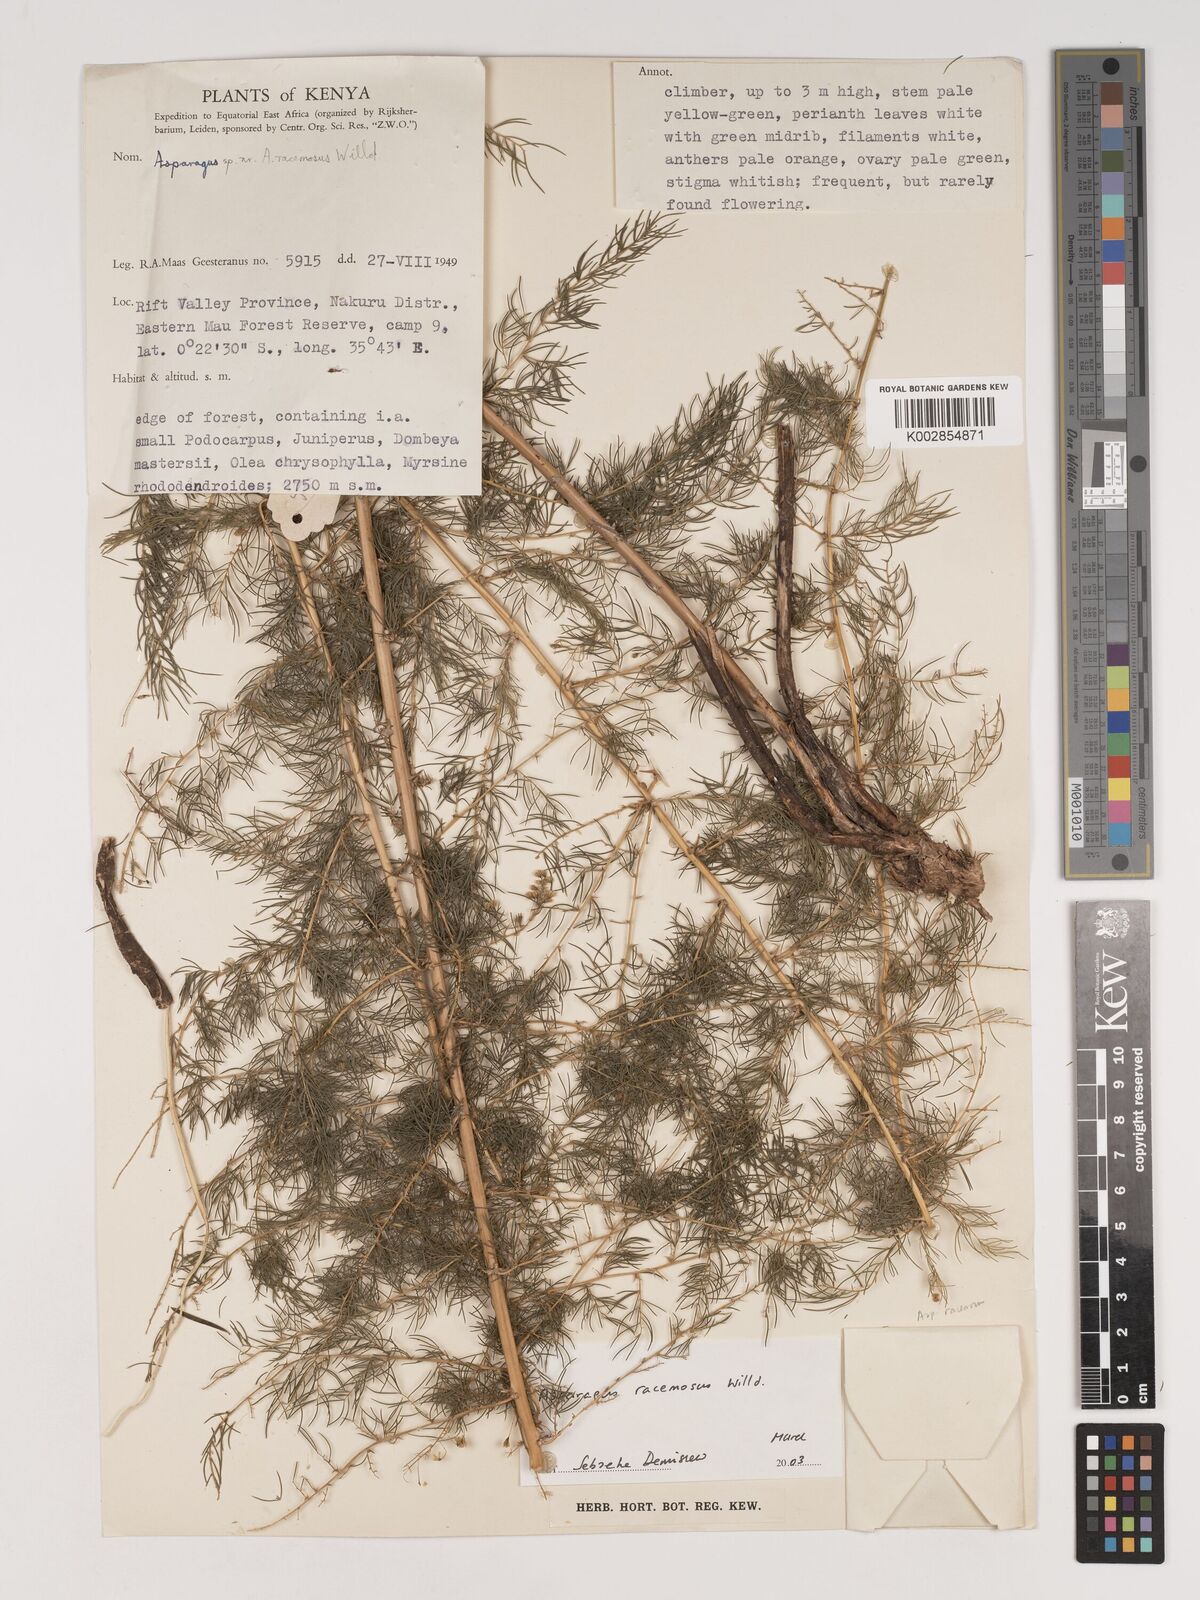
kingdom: Plantae
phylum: Tracheophyta
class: Liliopsida
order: Asparagales
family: Asparagaceae
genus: Asparagus
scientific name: Asparagus racemosus
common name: Asparagus-fern
